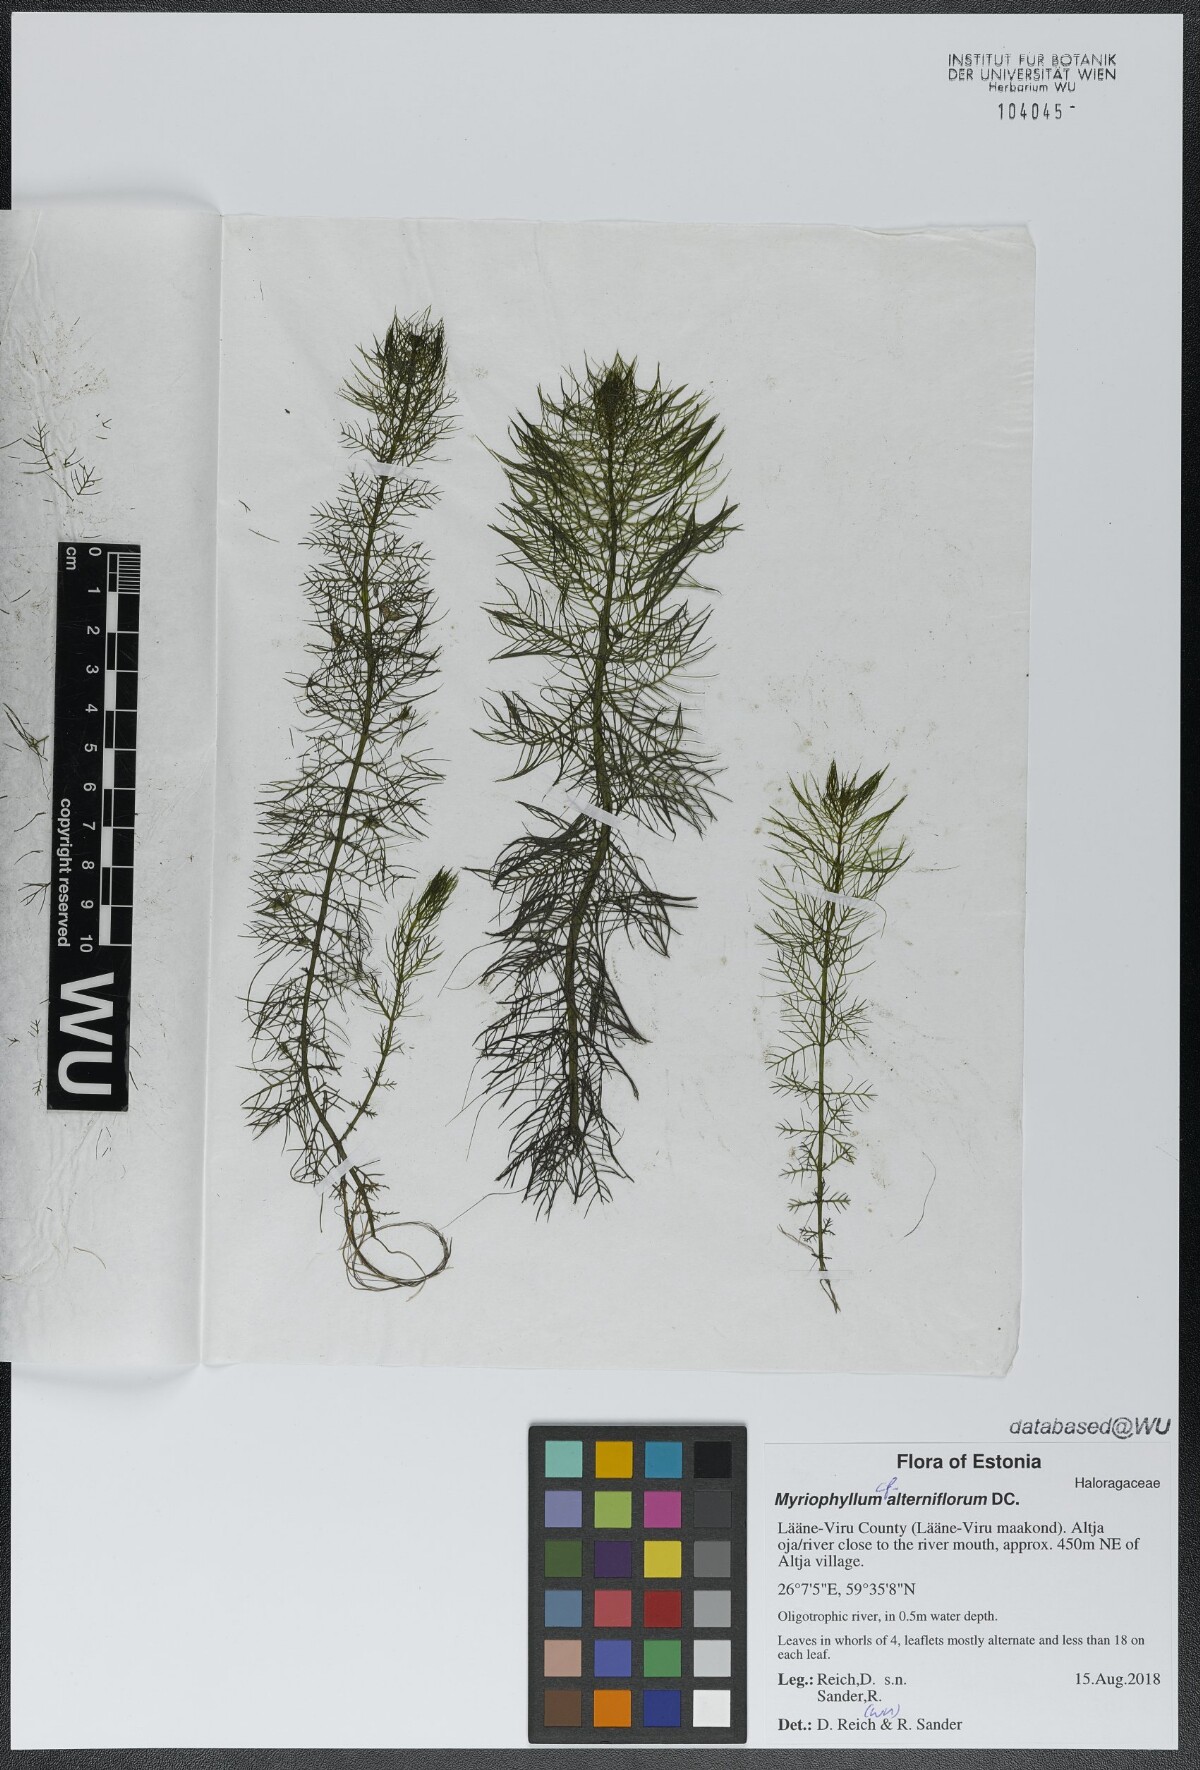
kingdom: Plantae
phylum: Tracheophyta
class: Magnoliopsida
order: Saxifragales
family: Haloragaceae
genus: Myriophyllum
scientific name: Myriophyllum alterniflorum
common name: Alternate water-milfoil
